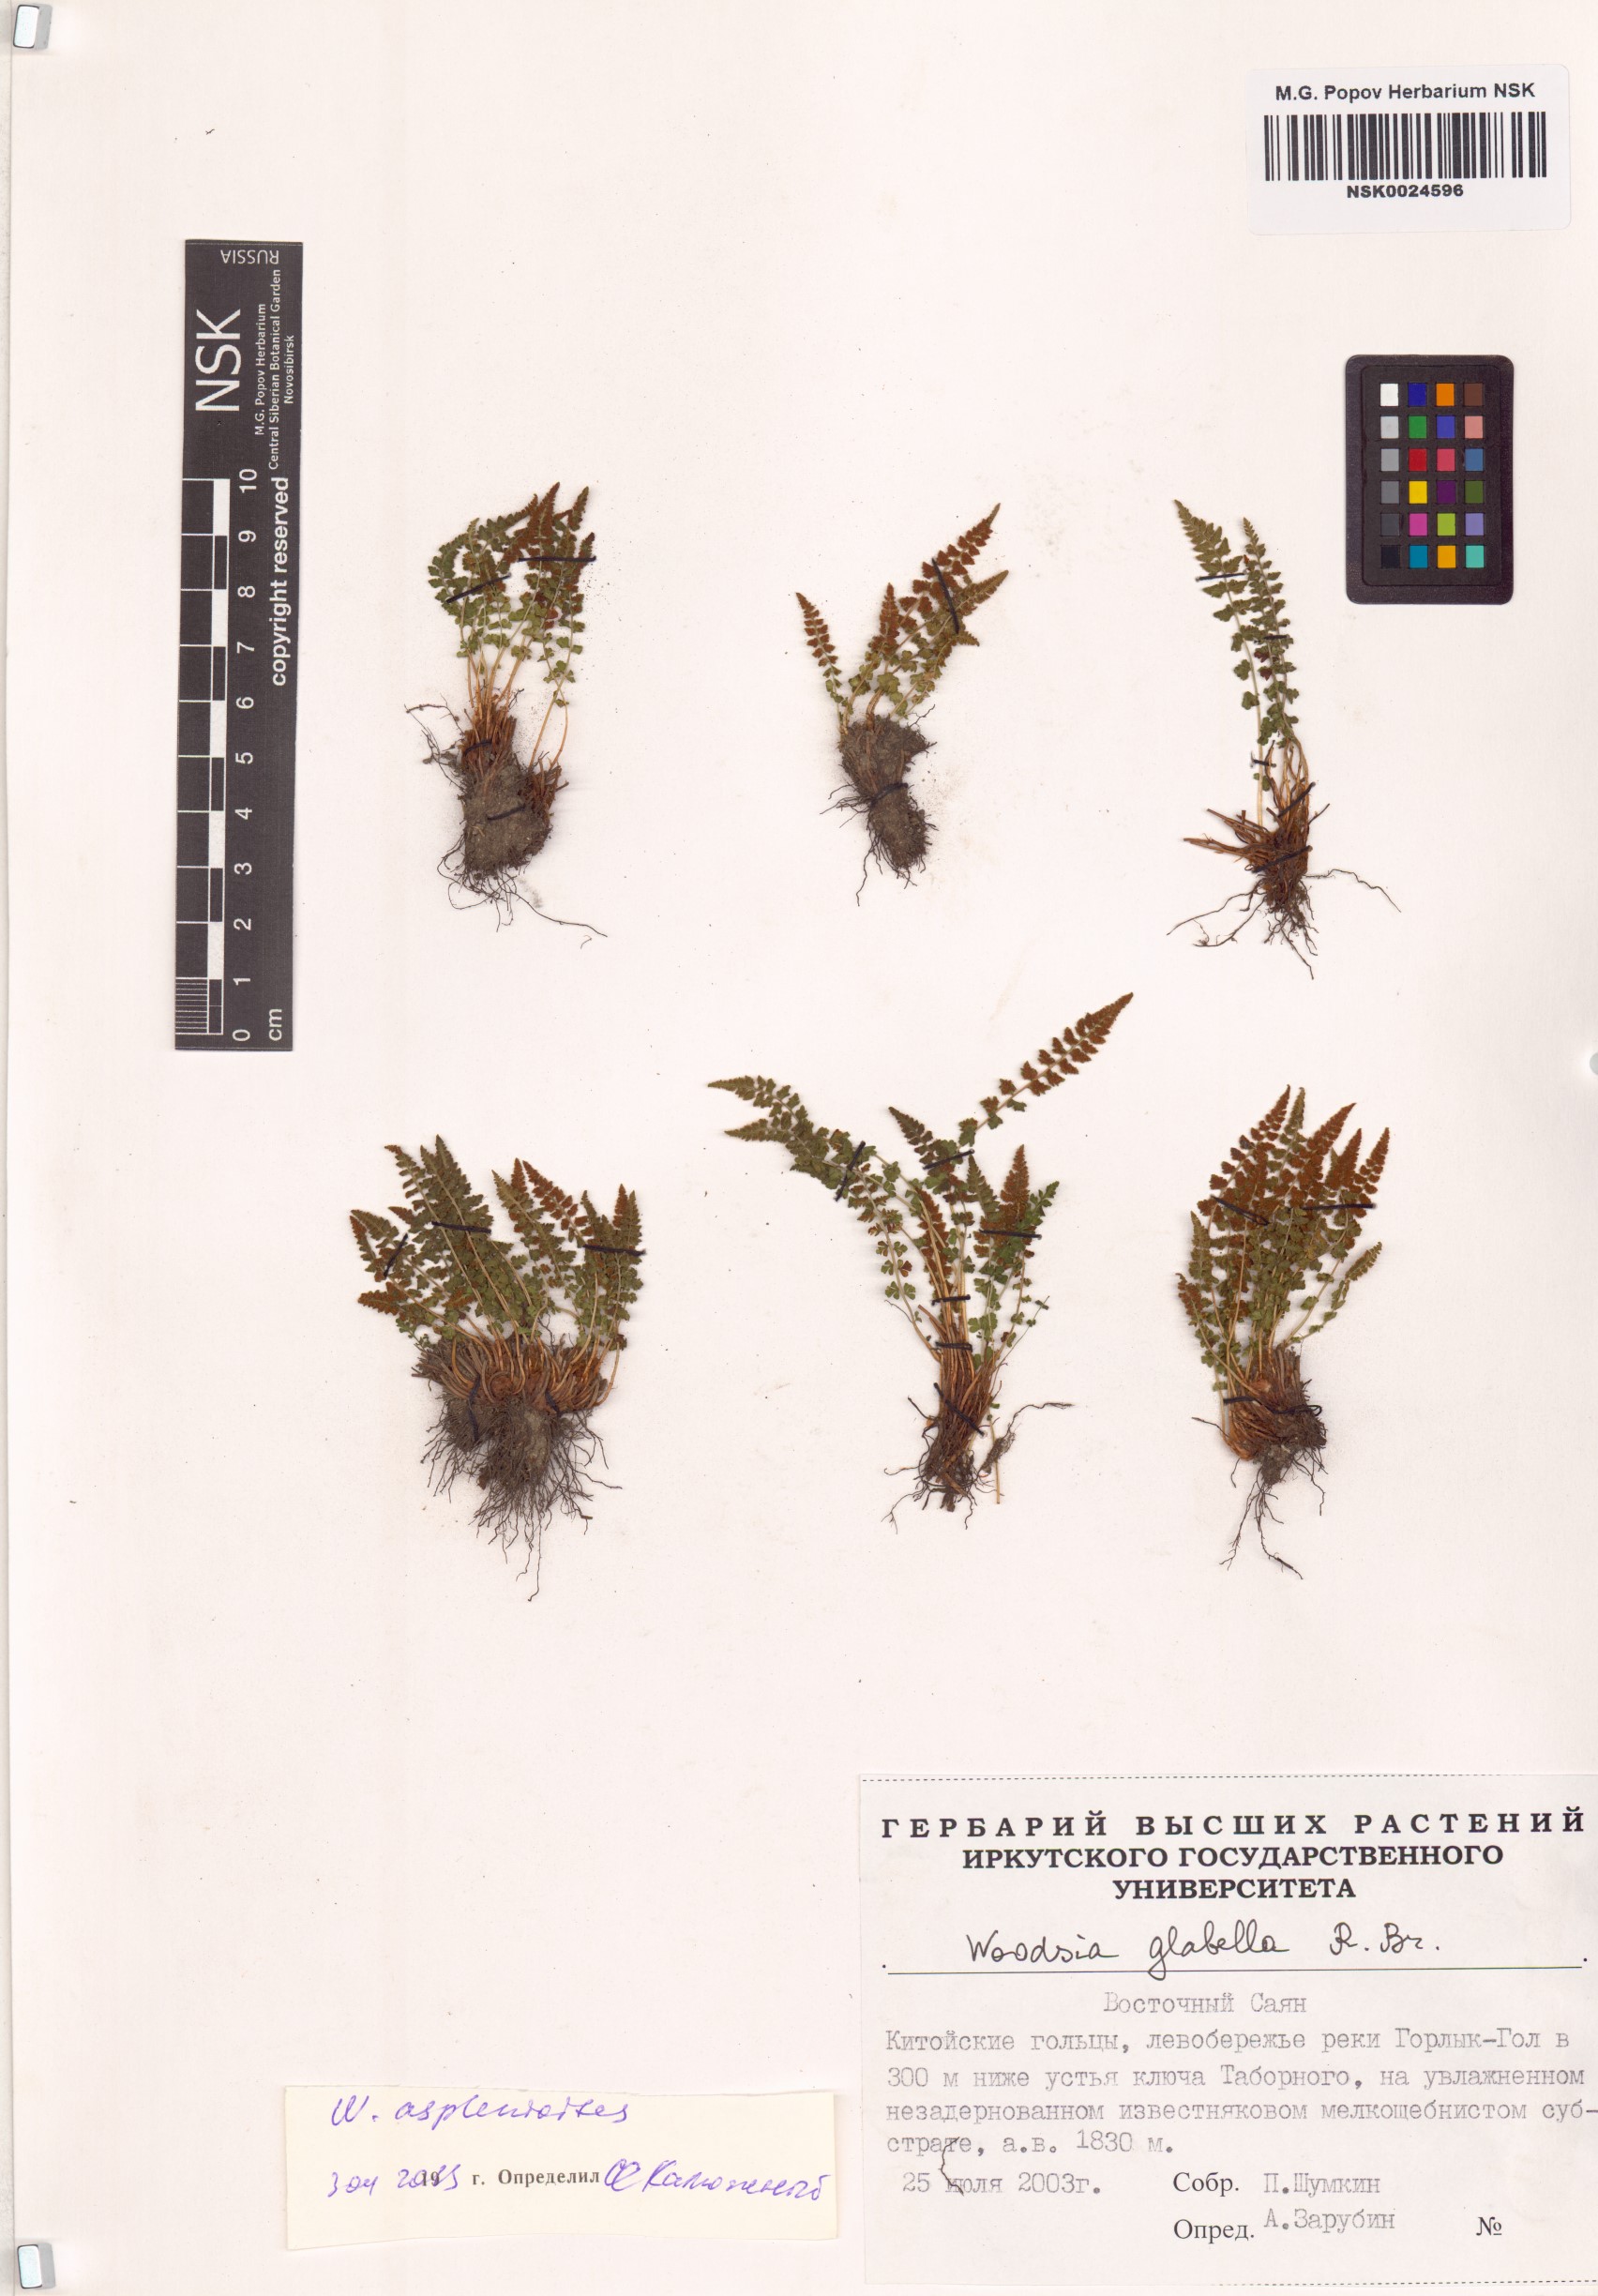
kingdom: Plantae
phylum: Tracheophyta
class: Polypodiopsida
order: Polypodiales
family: Woodsiaceae
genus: Woodsia
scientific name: Woodsia glabella
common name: Smooth woodsia
